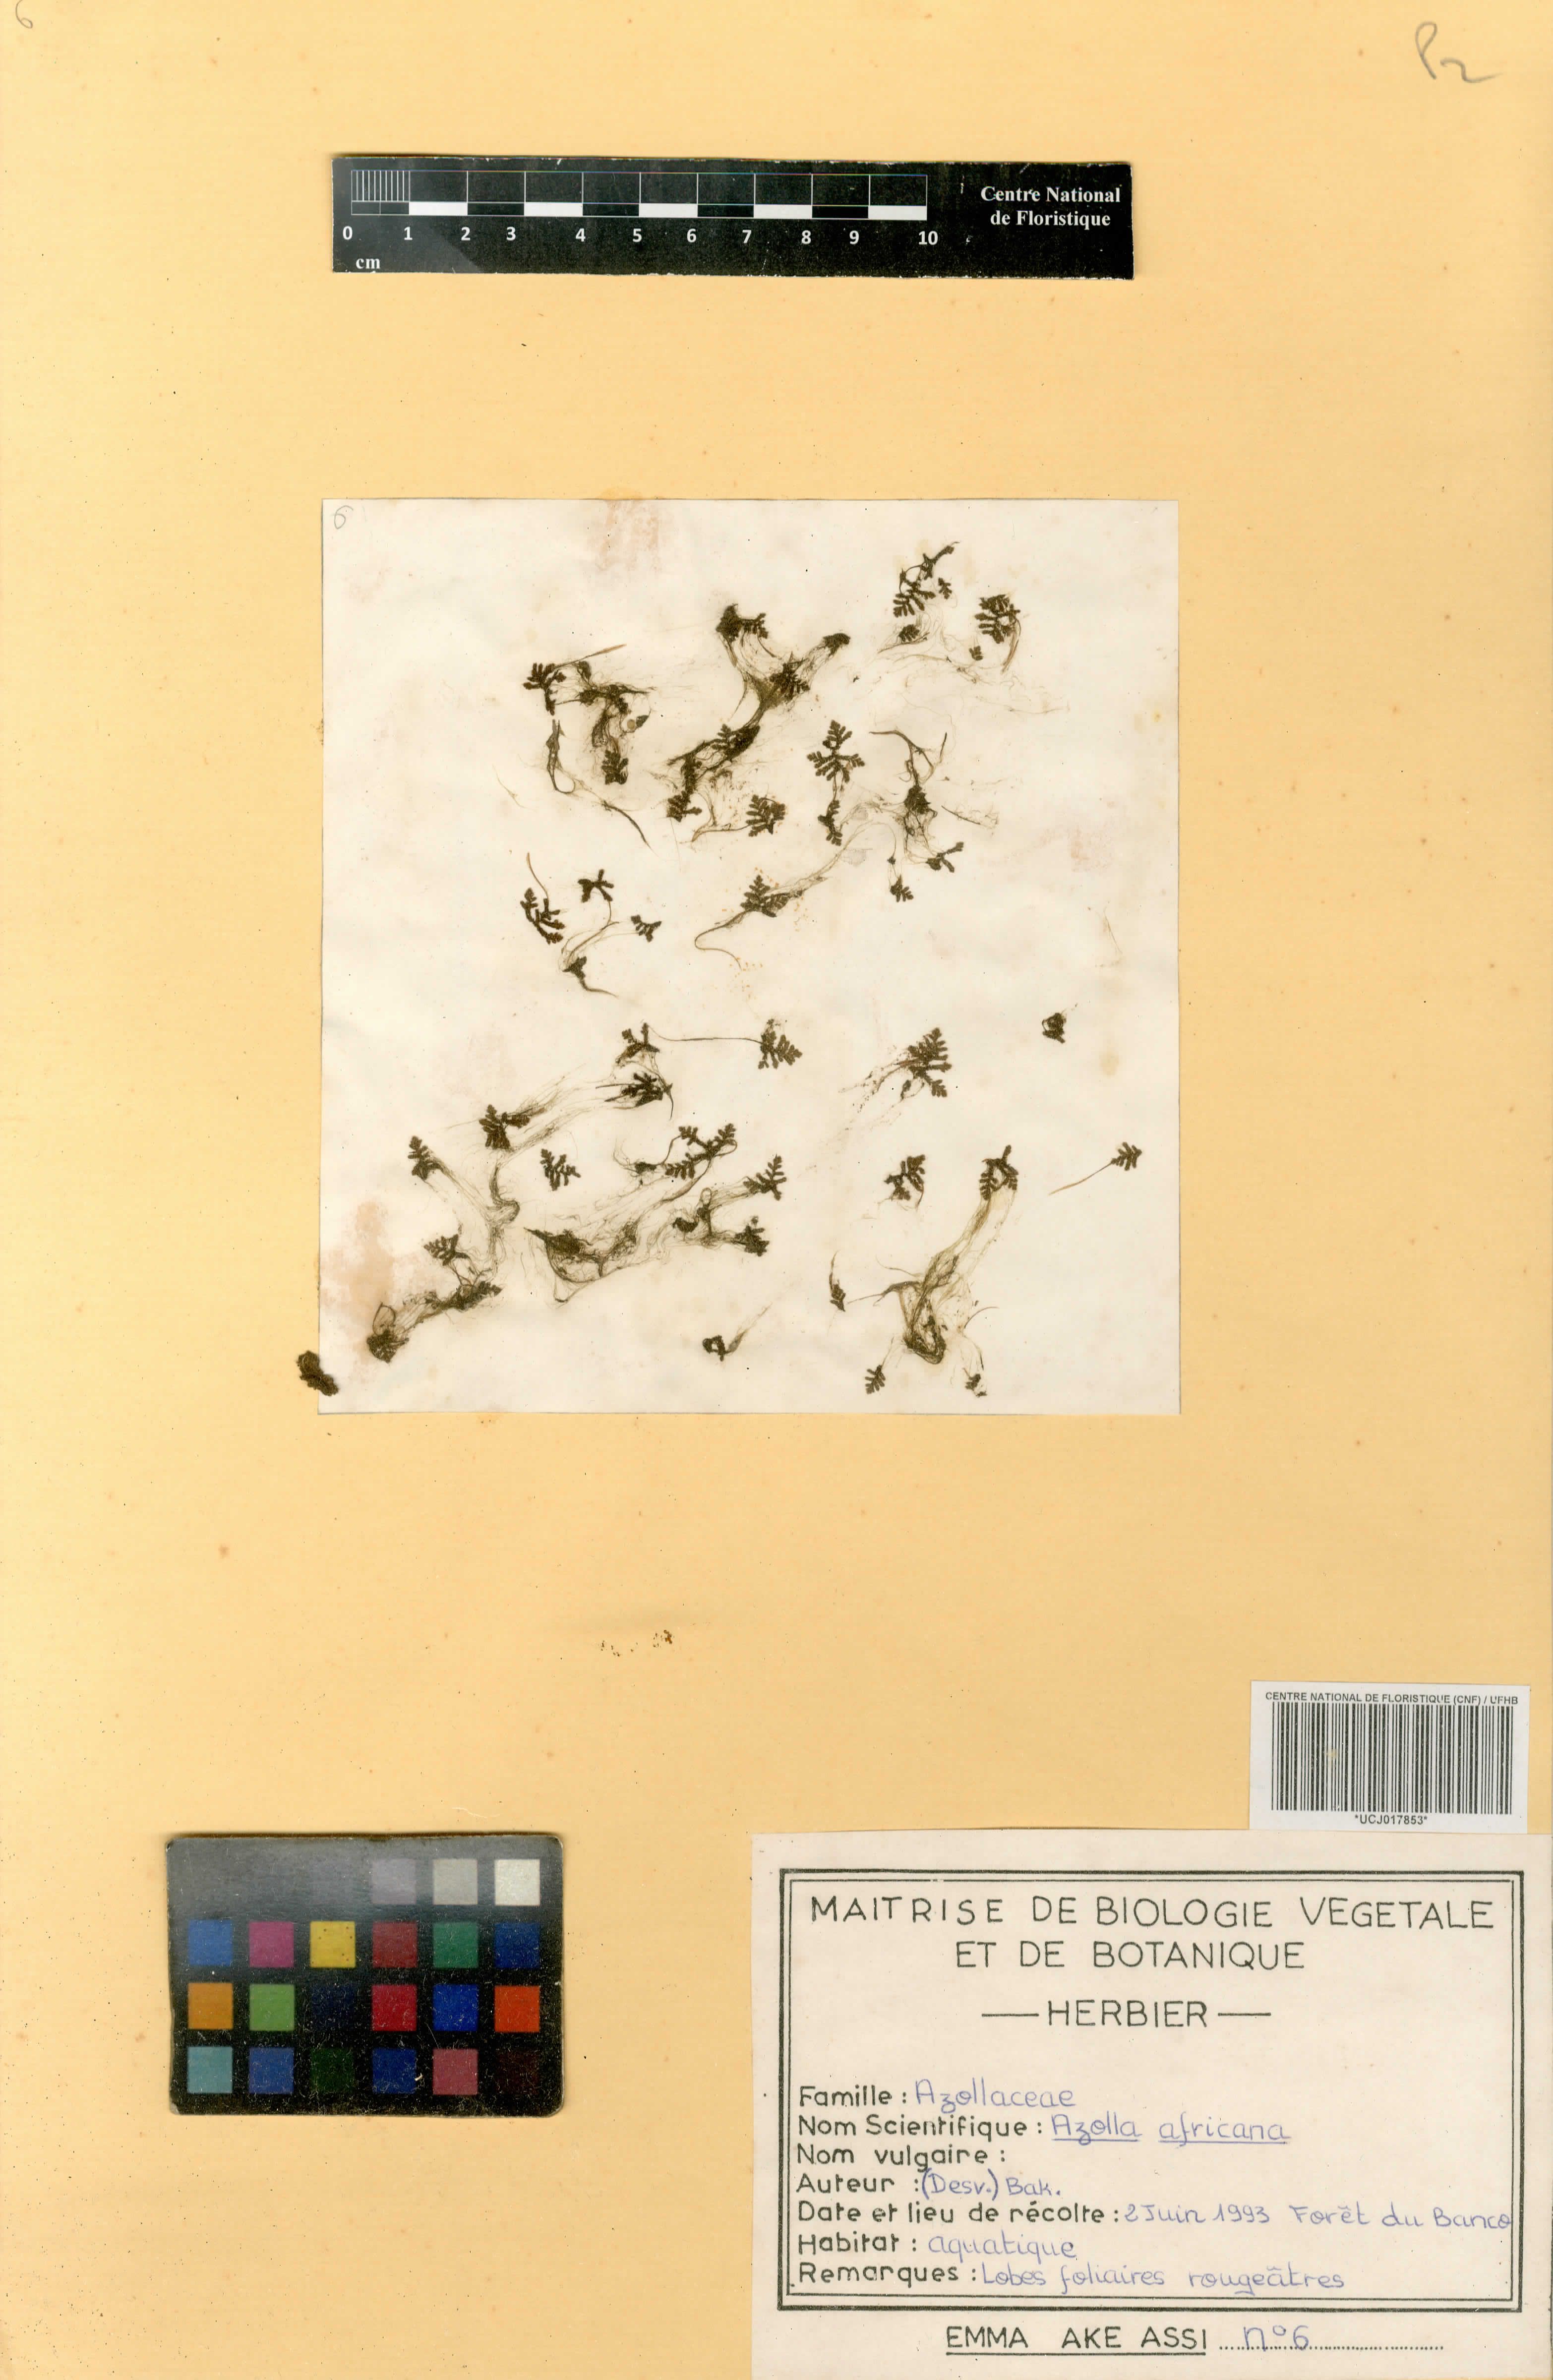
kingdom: Plantae
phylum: Tracheophyta
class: Polypodiopsida
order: Salviniales
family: Salviniaceae
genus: Azolla
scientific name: Azolla pinnata
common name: Ferny azolla
